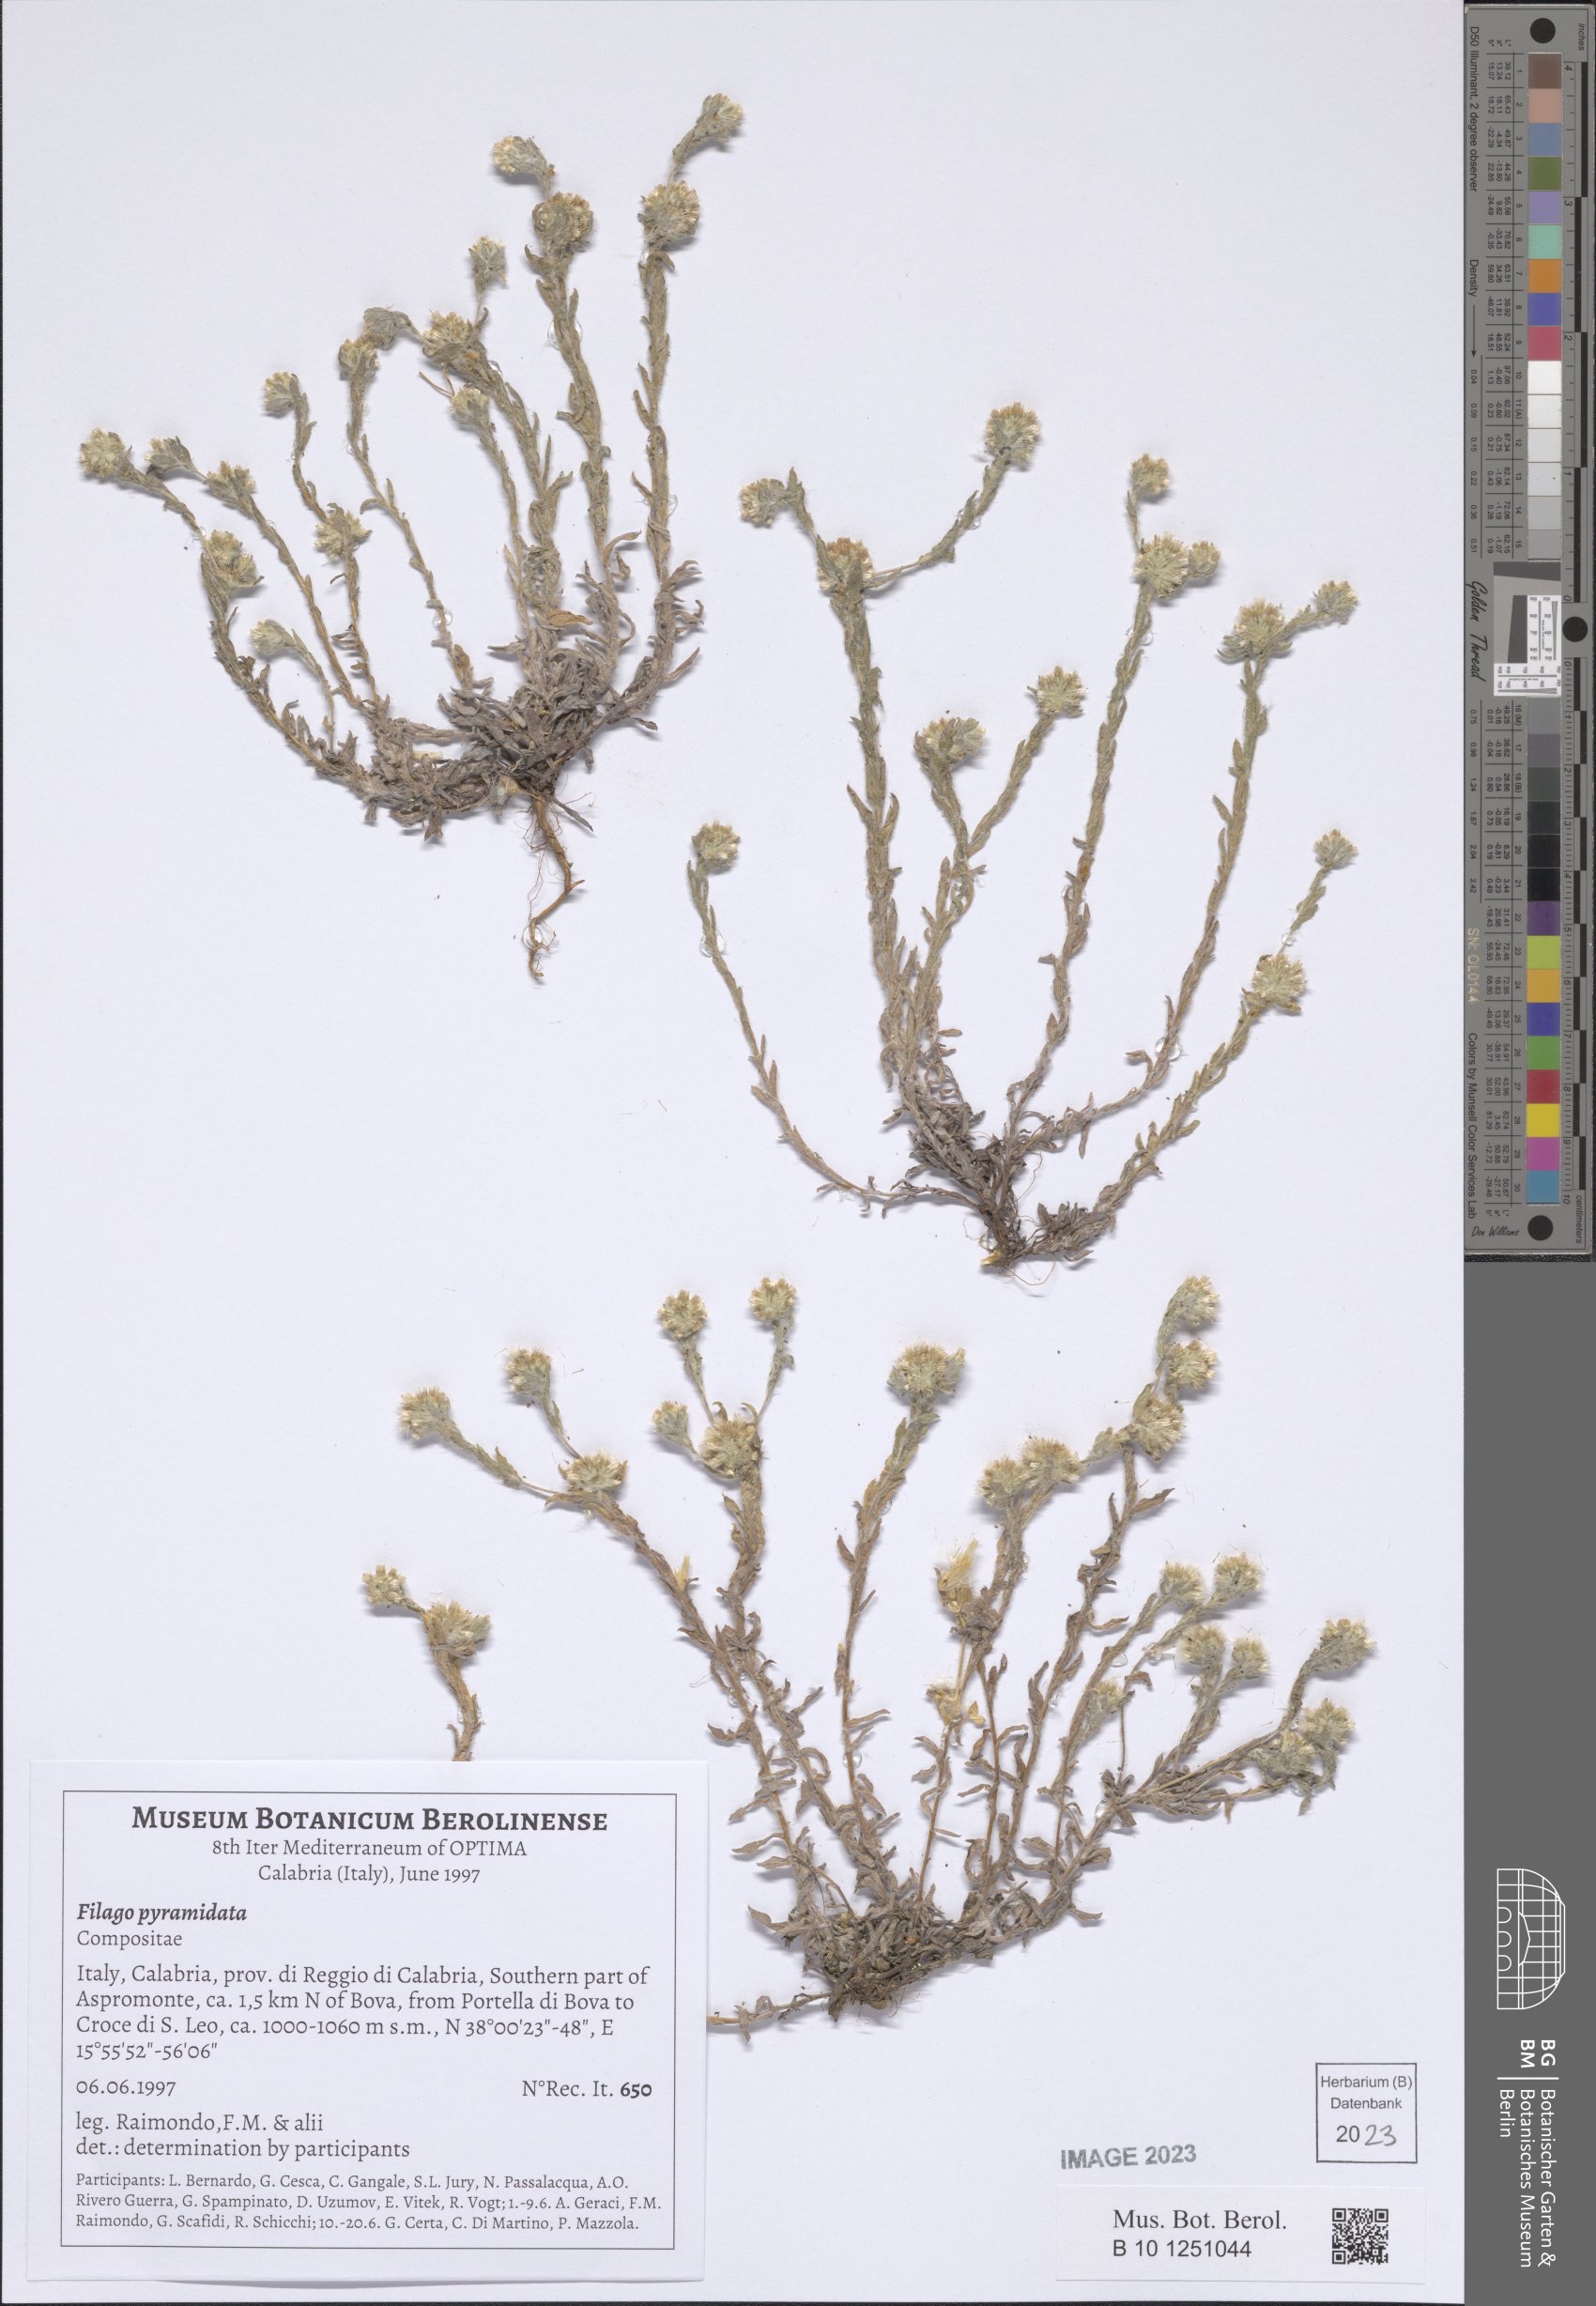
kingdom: Plantae
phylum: Tracheophyta
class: Magnoliopsida
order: Asterales
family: Asteraceae
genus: Filago
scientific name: Filago pyramidata
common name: Broad-leaved cudweed
